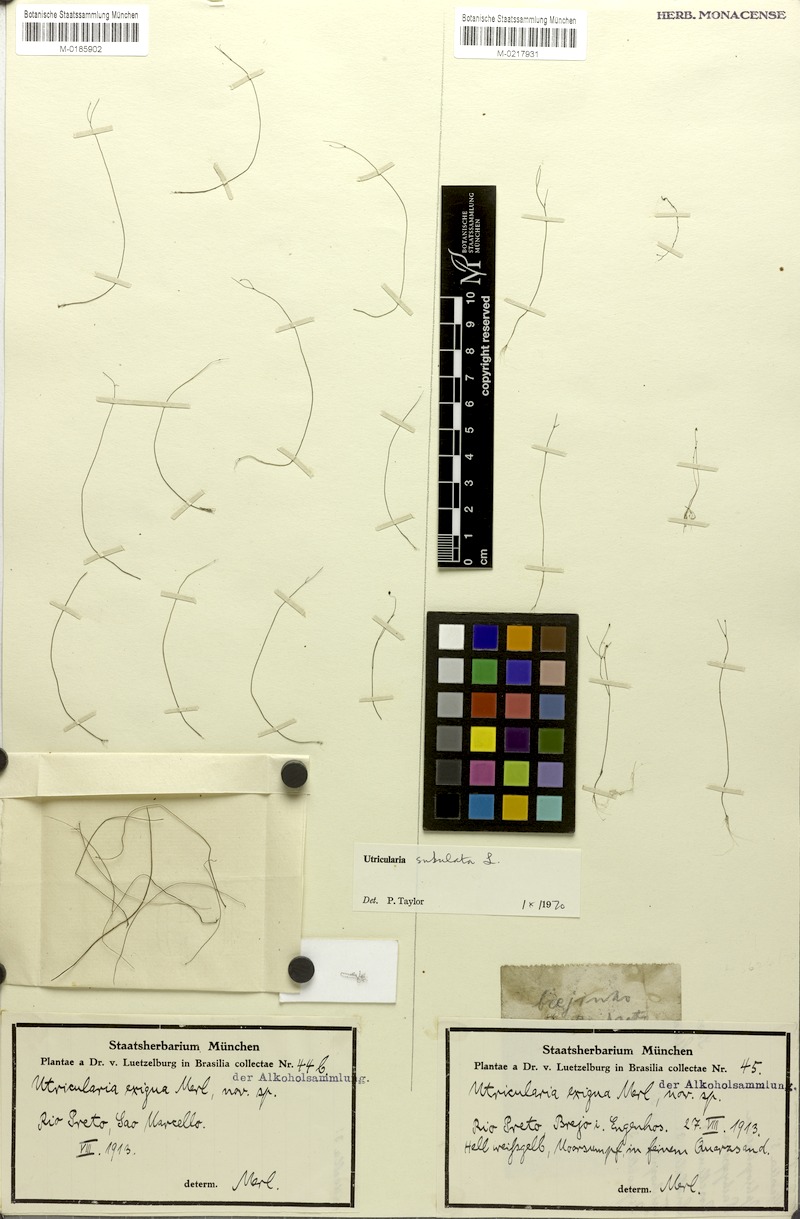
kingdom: Plantae
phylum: Tracheophyta
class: Magnoliopsida
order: Lamiales
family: Lentibulariaceae
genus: Utricularia
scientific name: Utricularia subulata
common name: Tiny bladderwort
